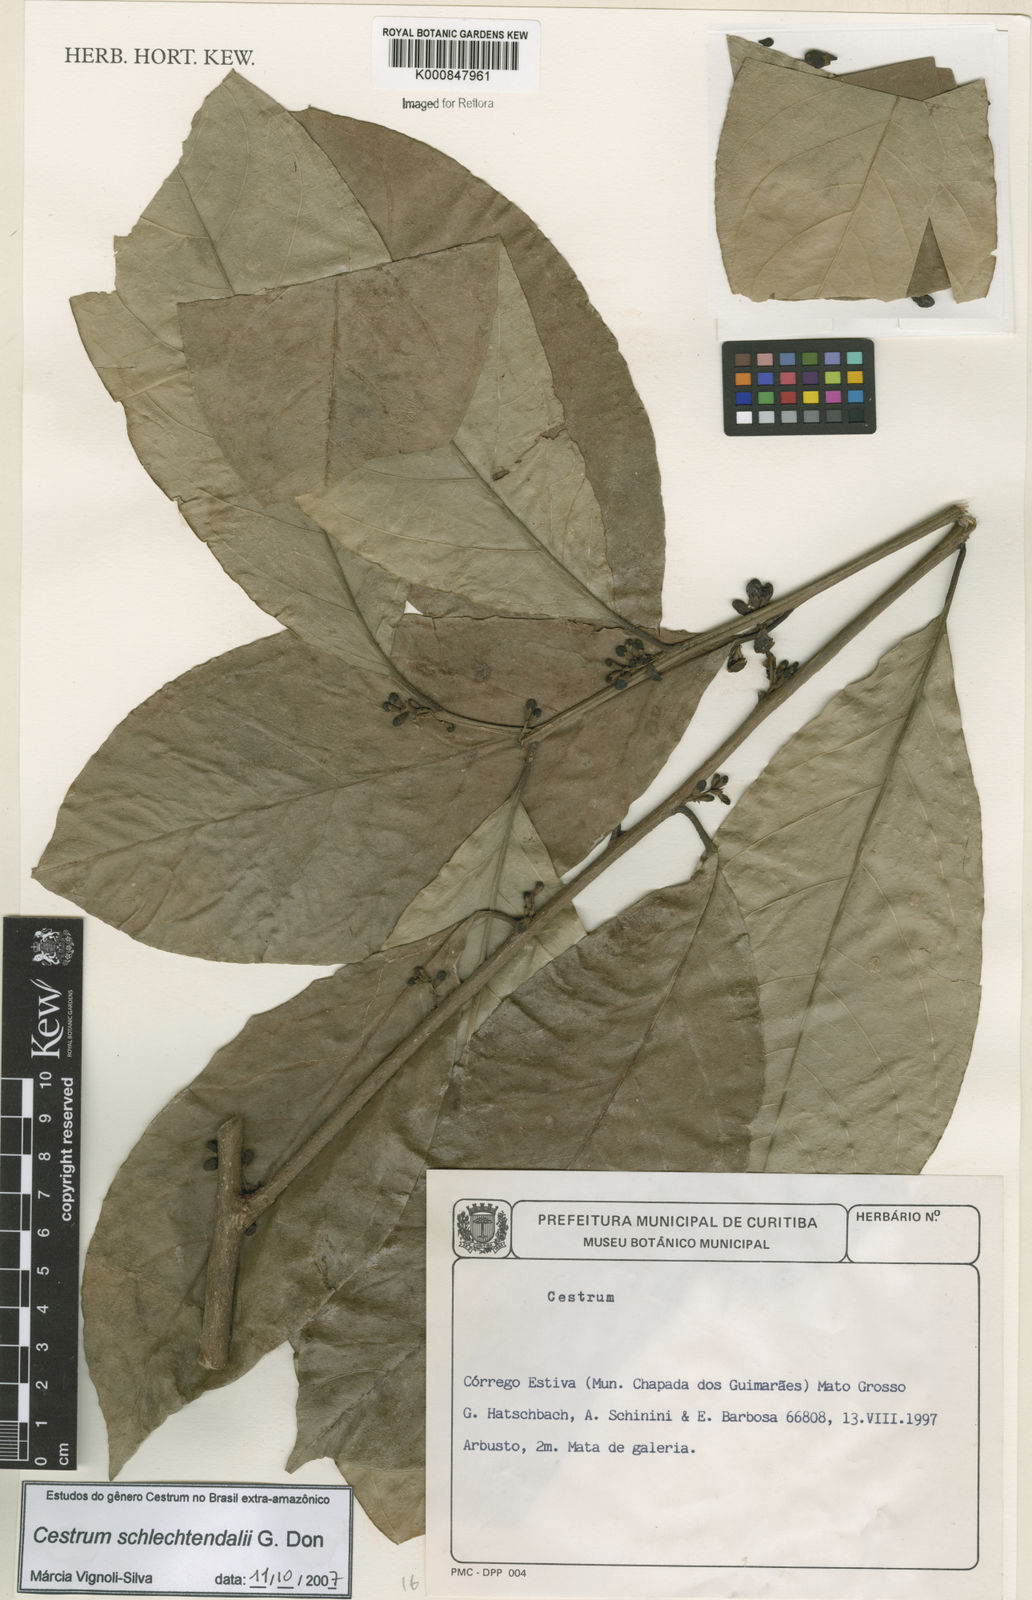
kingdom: Plantae
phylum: Tracheophyta
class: Magnoliopsida
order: Solanales
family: Solanaceae
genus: Cestrum
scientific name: Cestrum schlechtendalii
